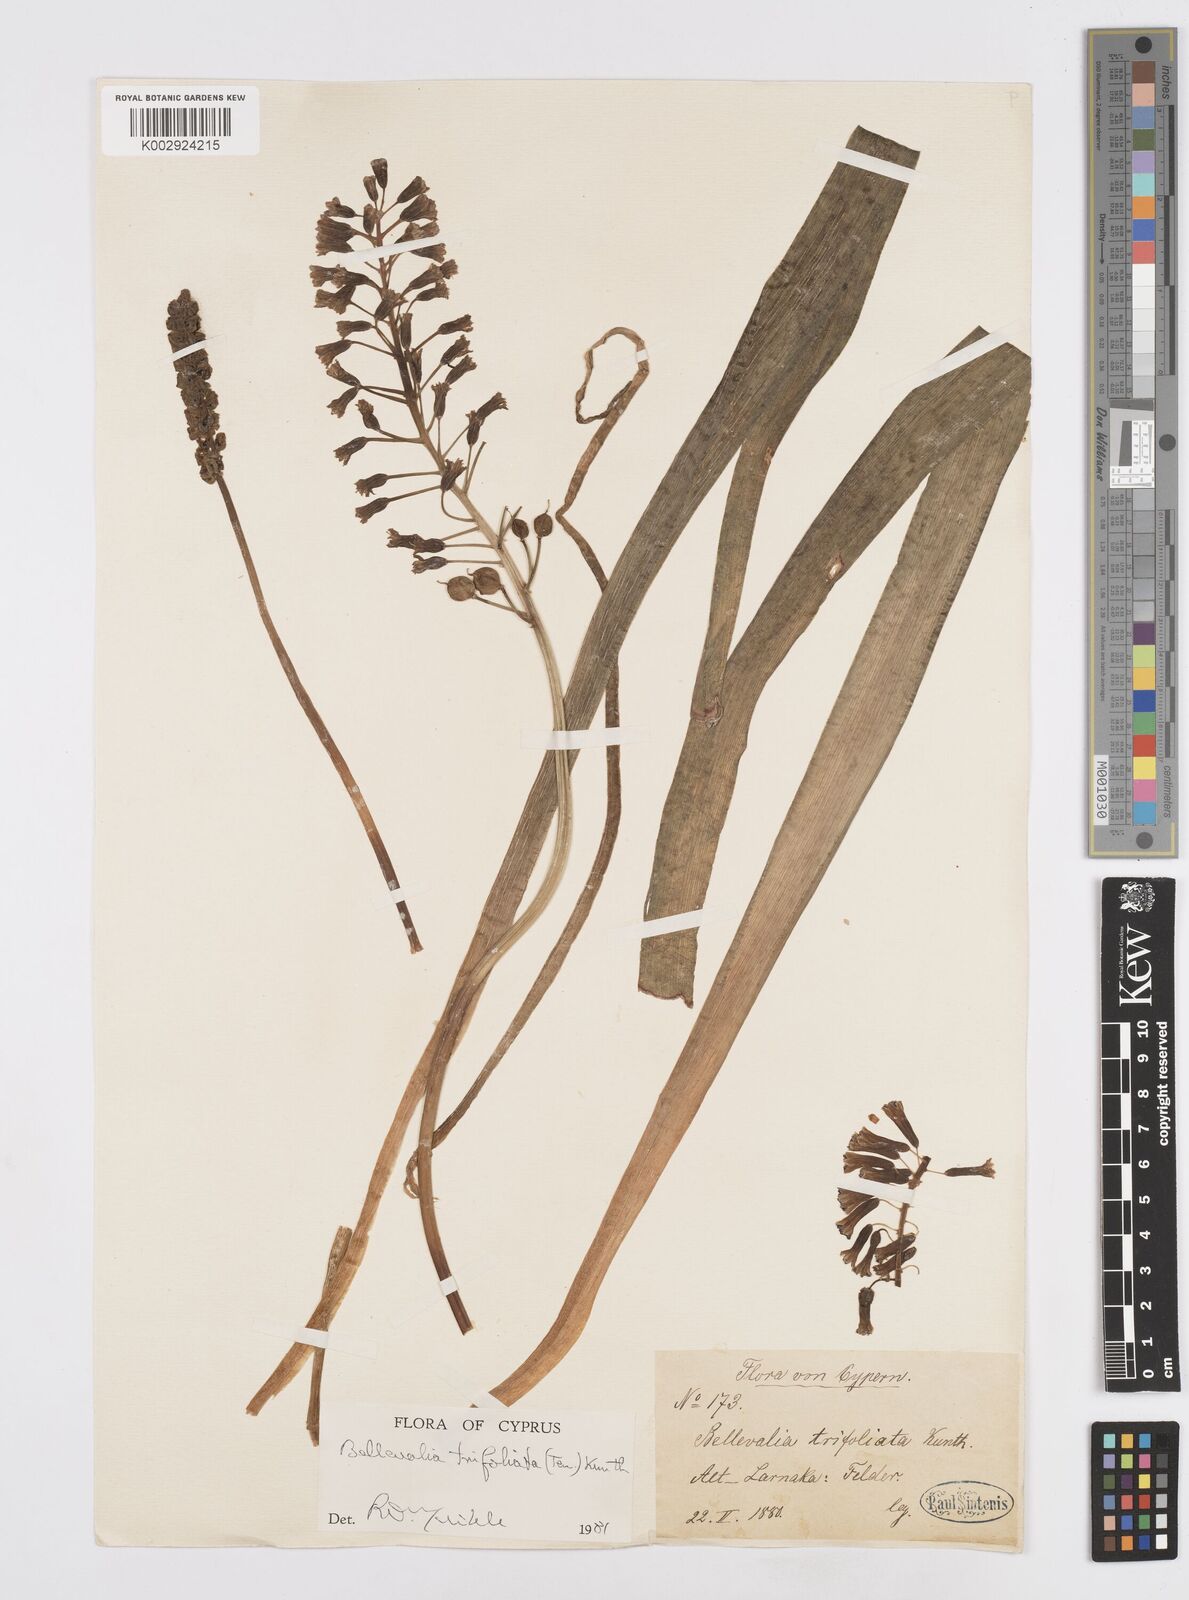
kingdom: Plantae
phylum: Tracheophyta
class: Liliopsida
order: Asparagales
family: Asparagaceae
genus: Bellevalia
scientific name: Bellevalia trifoliata
